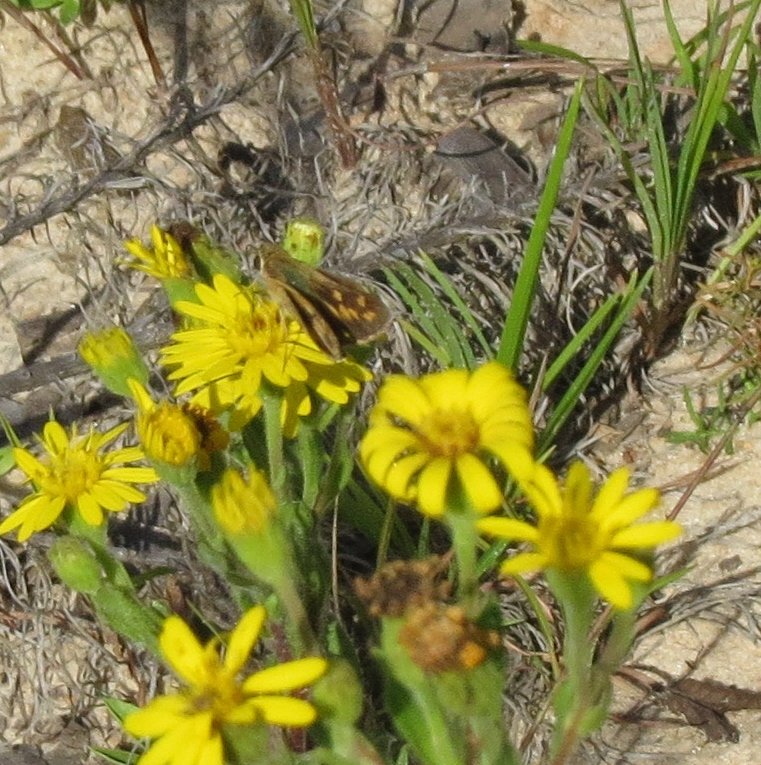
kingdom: Animalia
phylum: Arthropoda
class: Insecta
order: Lepidoptera
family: Hesperiidae
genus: Hylephila
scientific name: Hylephila phyleus
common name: Fiery Skipper
